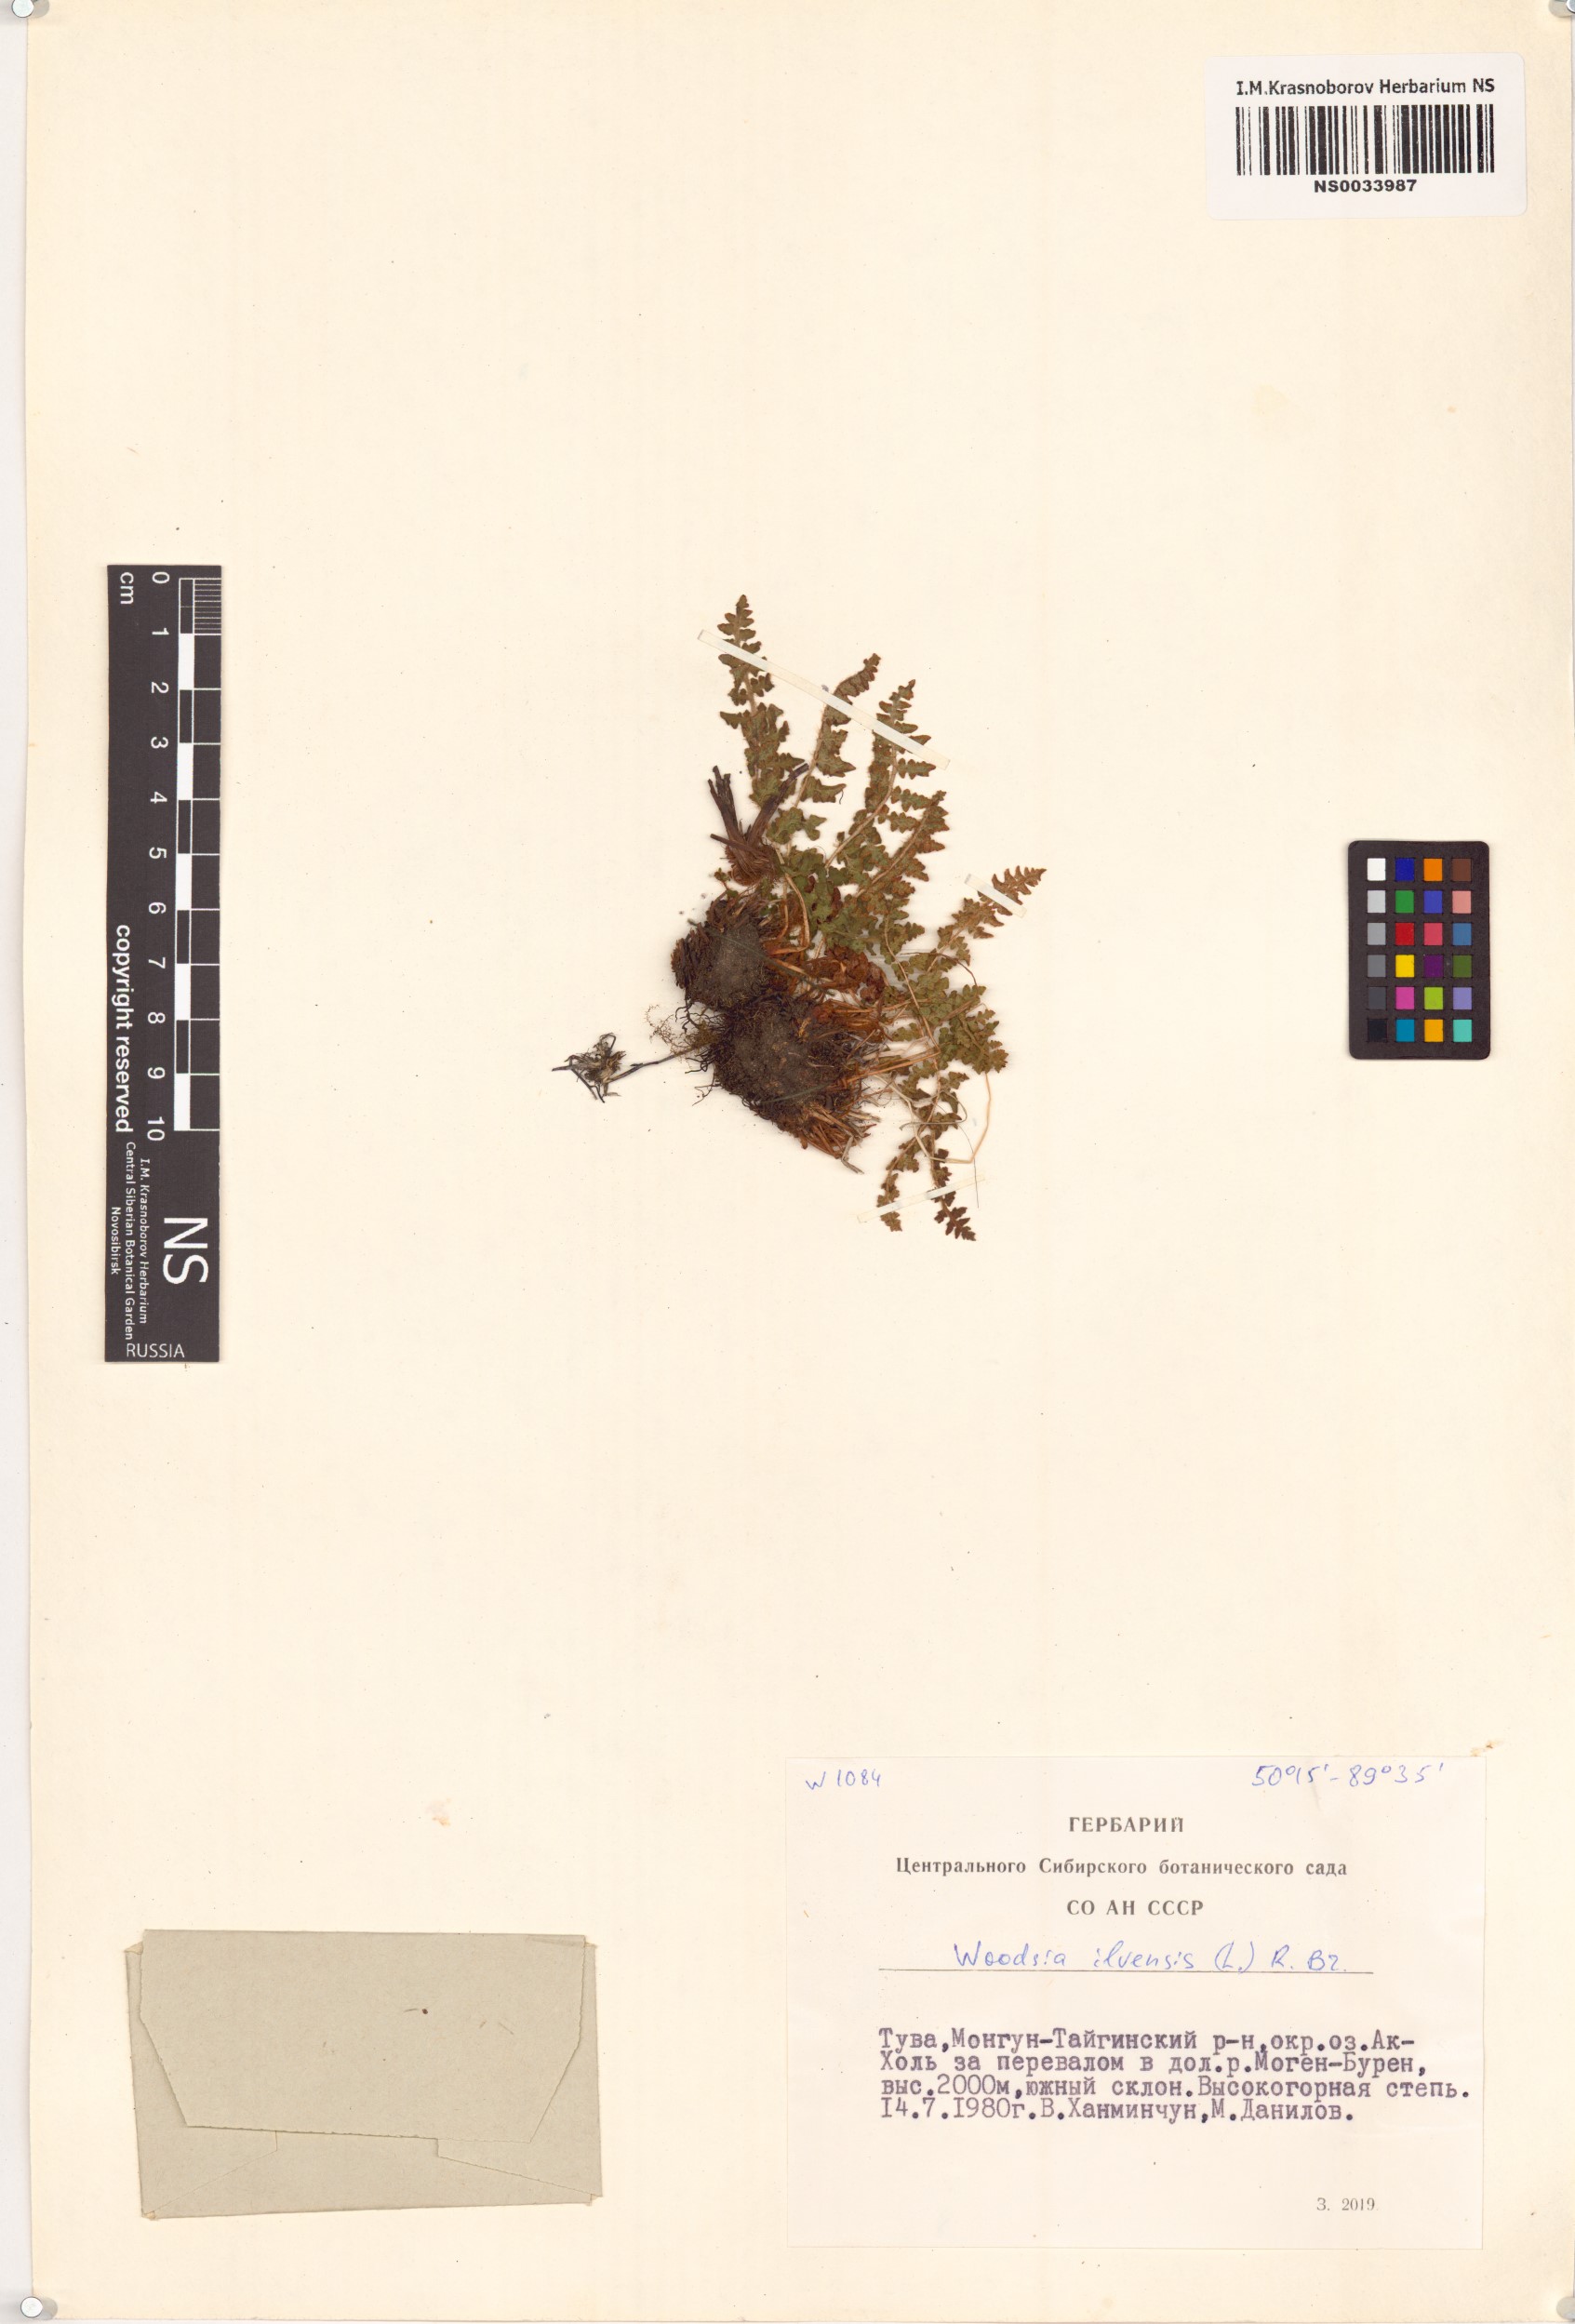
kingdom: Plantae
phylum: Tracheophyta
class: Polypodiopsida
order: Polypodiales
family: Woodsiaceae
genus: Woodsia
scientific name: Woodsia ilvensis
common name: Fragrant woodsia
